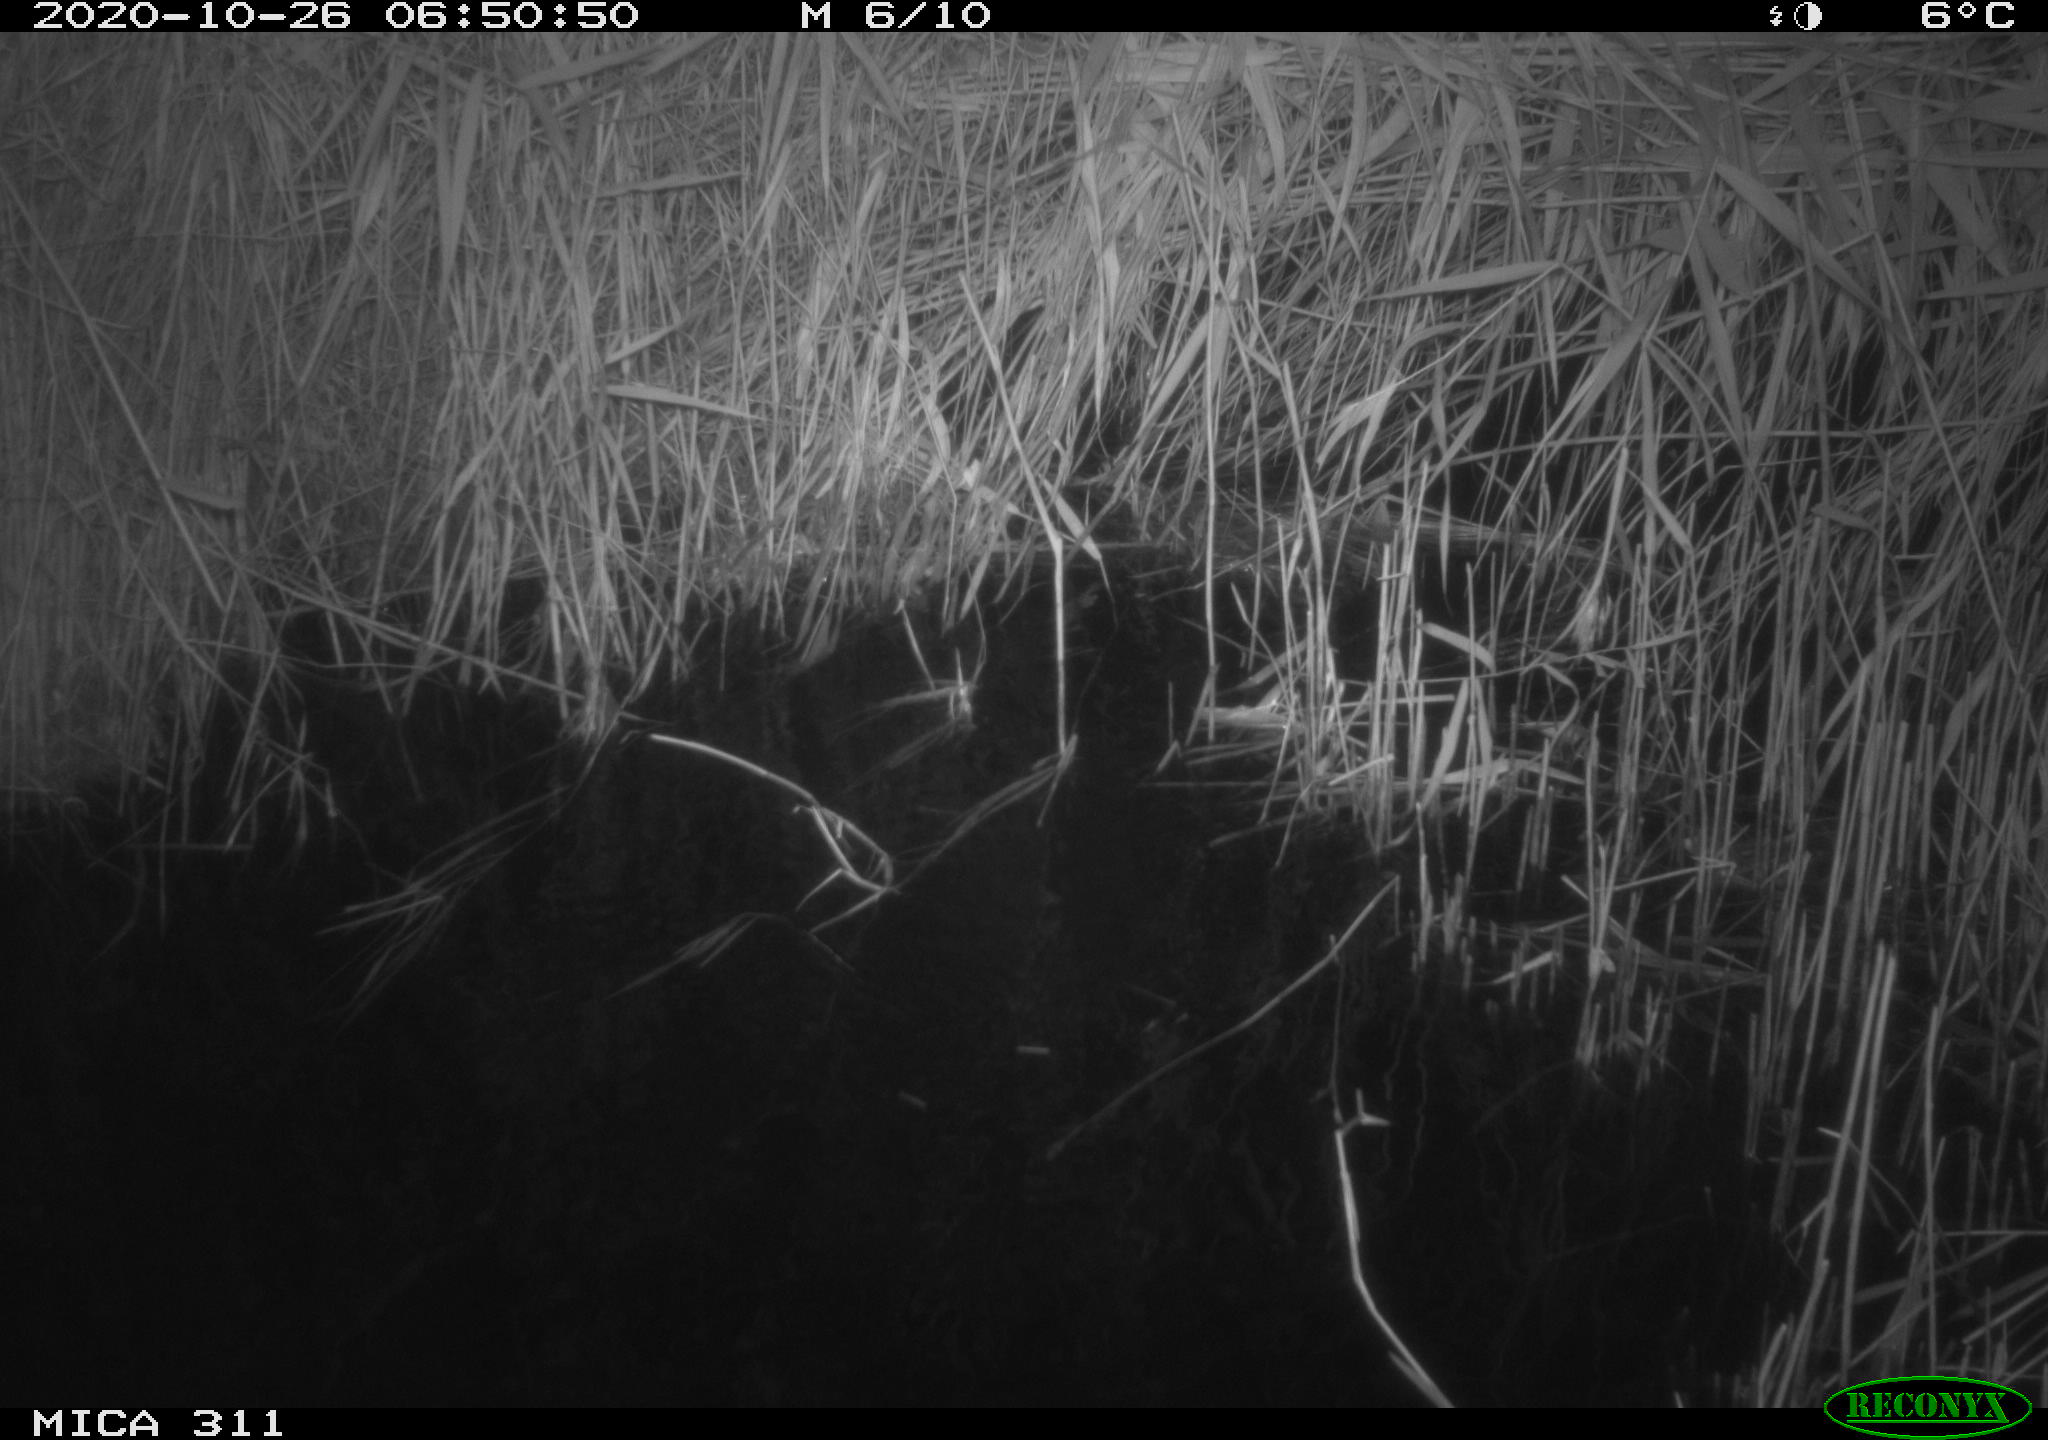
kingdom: Animalia
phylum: Chordata
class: Mammalia
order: Rodentia
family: Muridae
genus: Rattus
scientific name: Rattus norvegicus
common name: Brown rat
